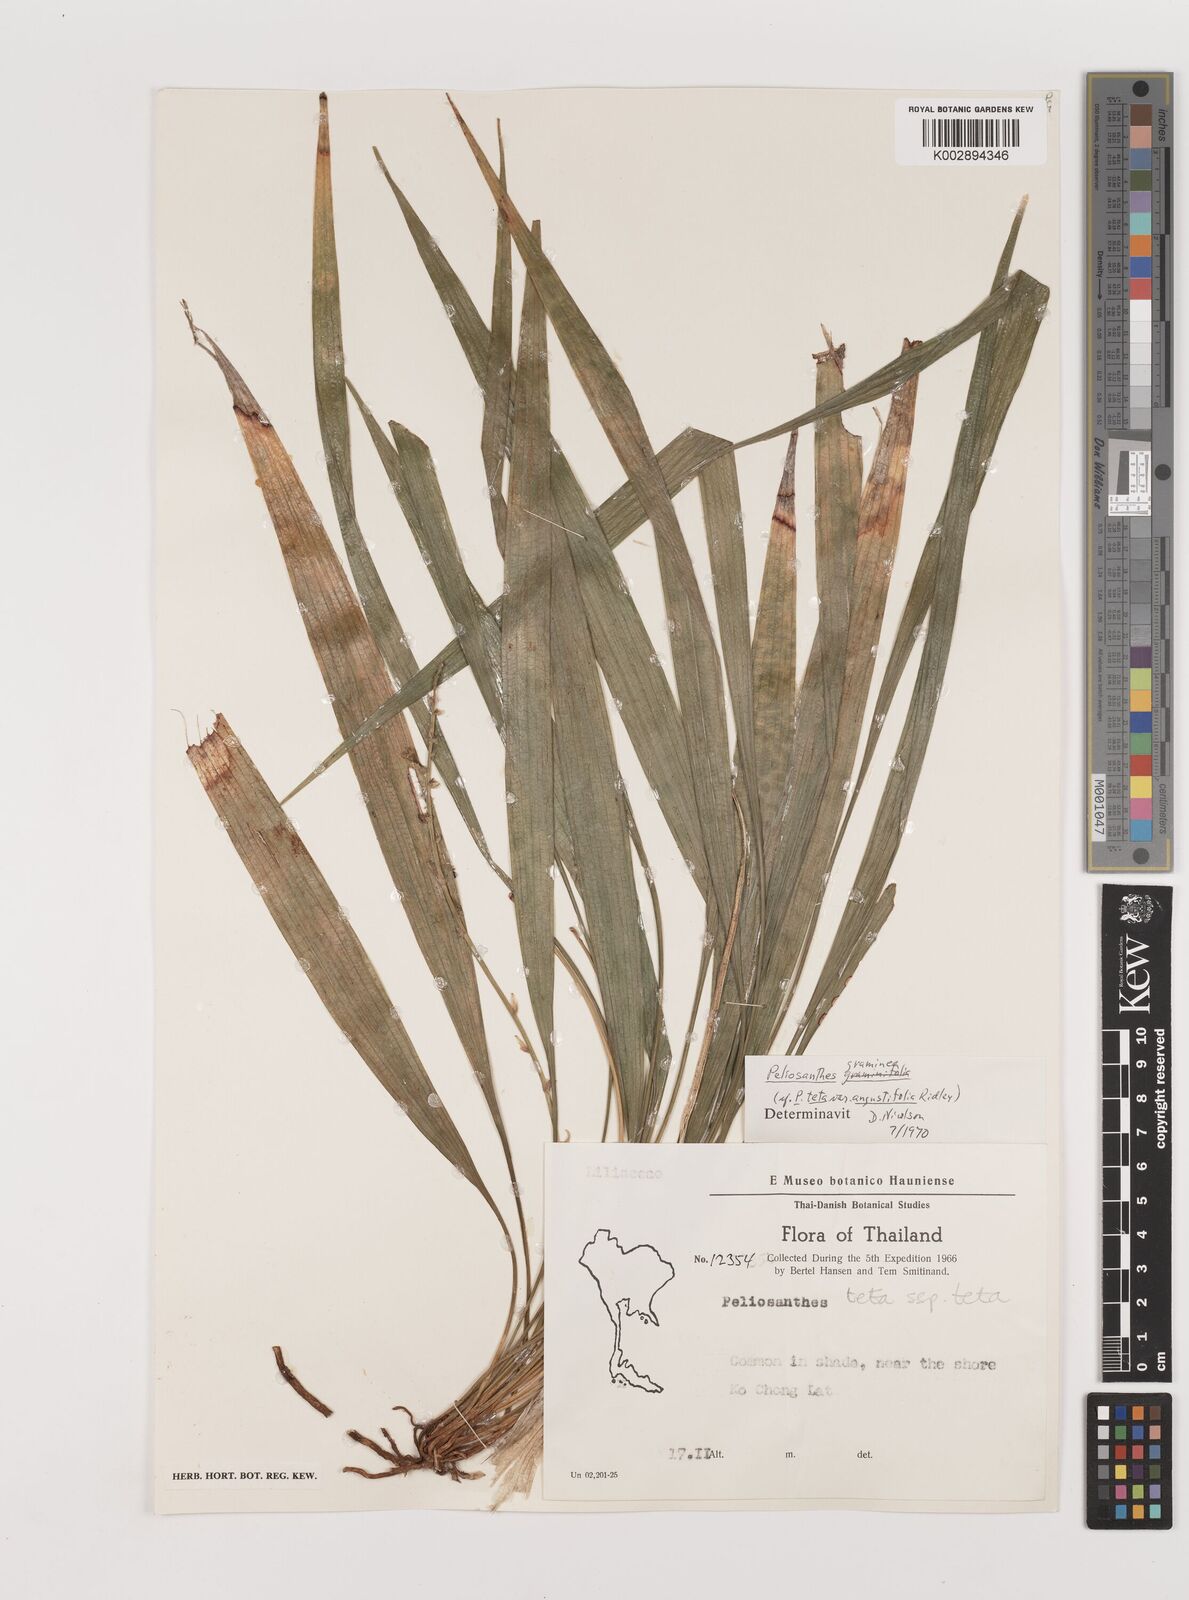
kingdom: Plantae
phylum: Tracheophyta
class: Liliopsida
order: Asparagales
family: Asparagaceae
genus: Peliosanthes
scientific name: Peliosanthes teta
